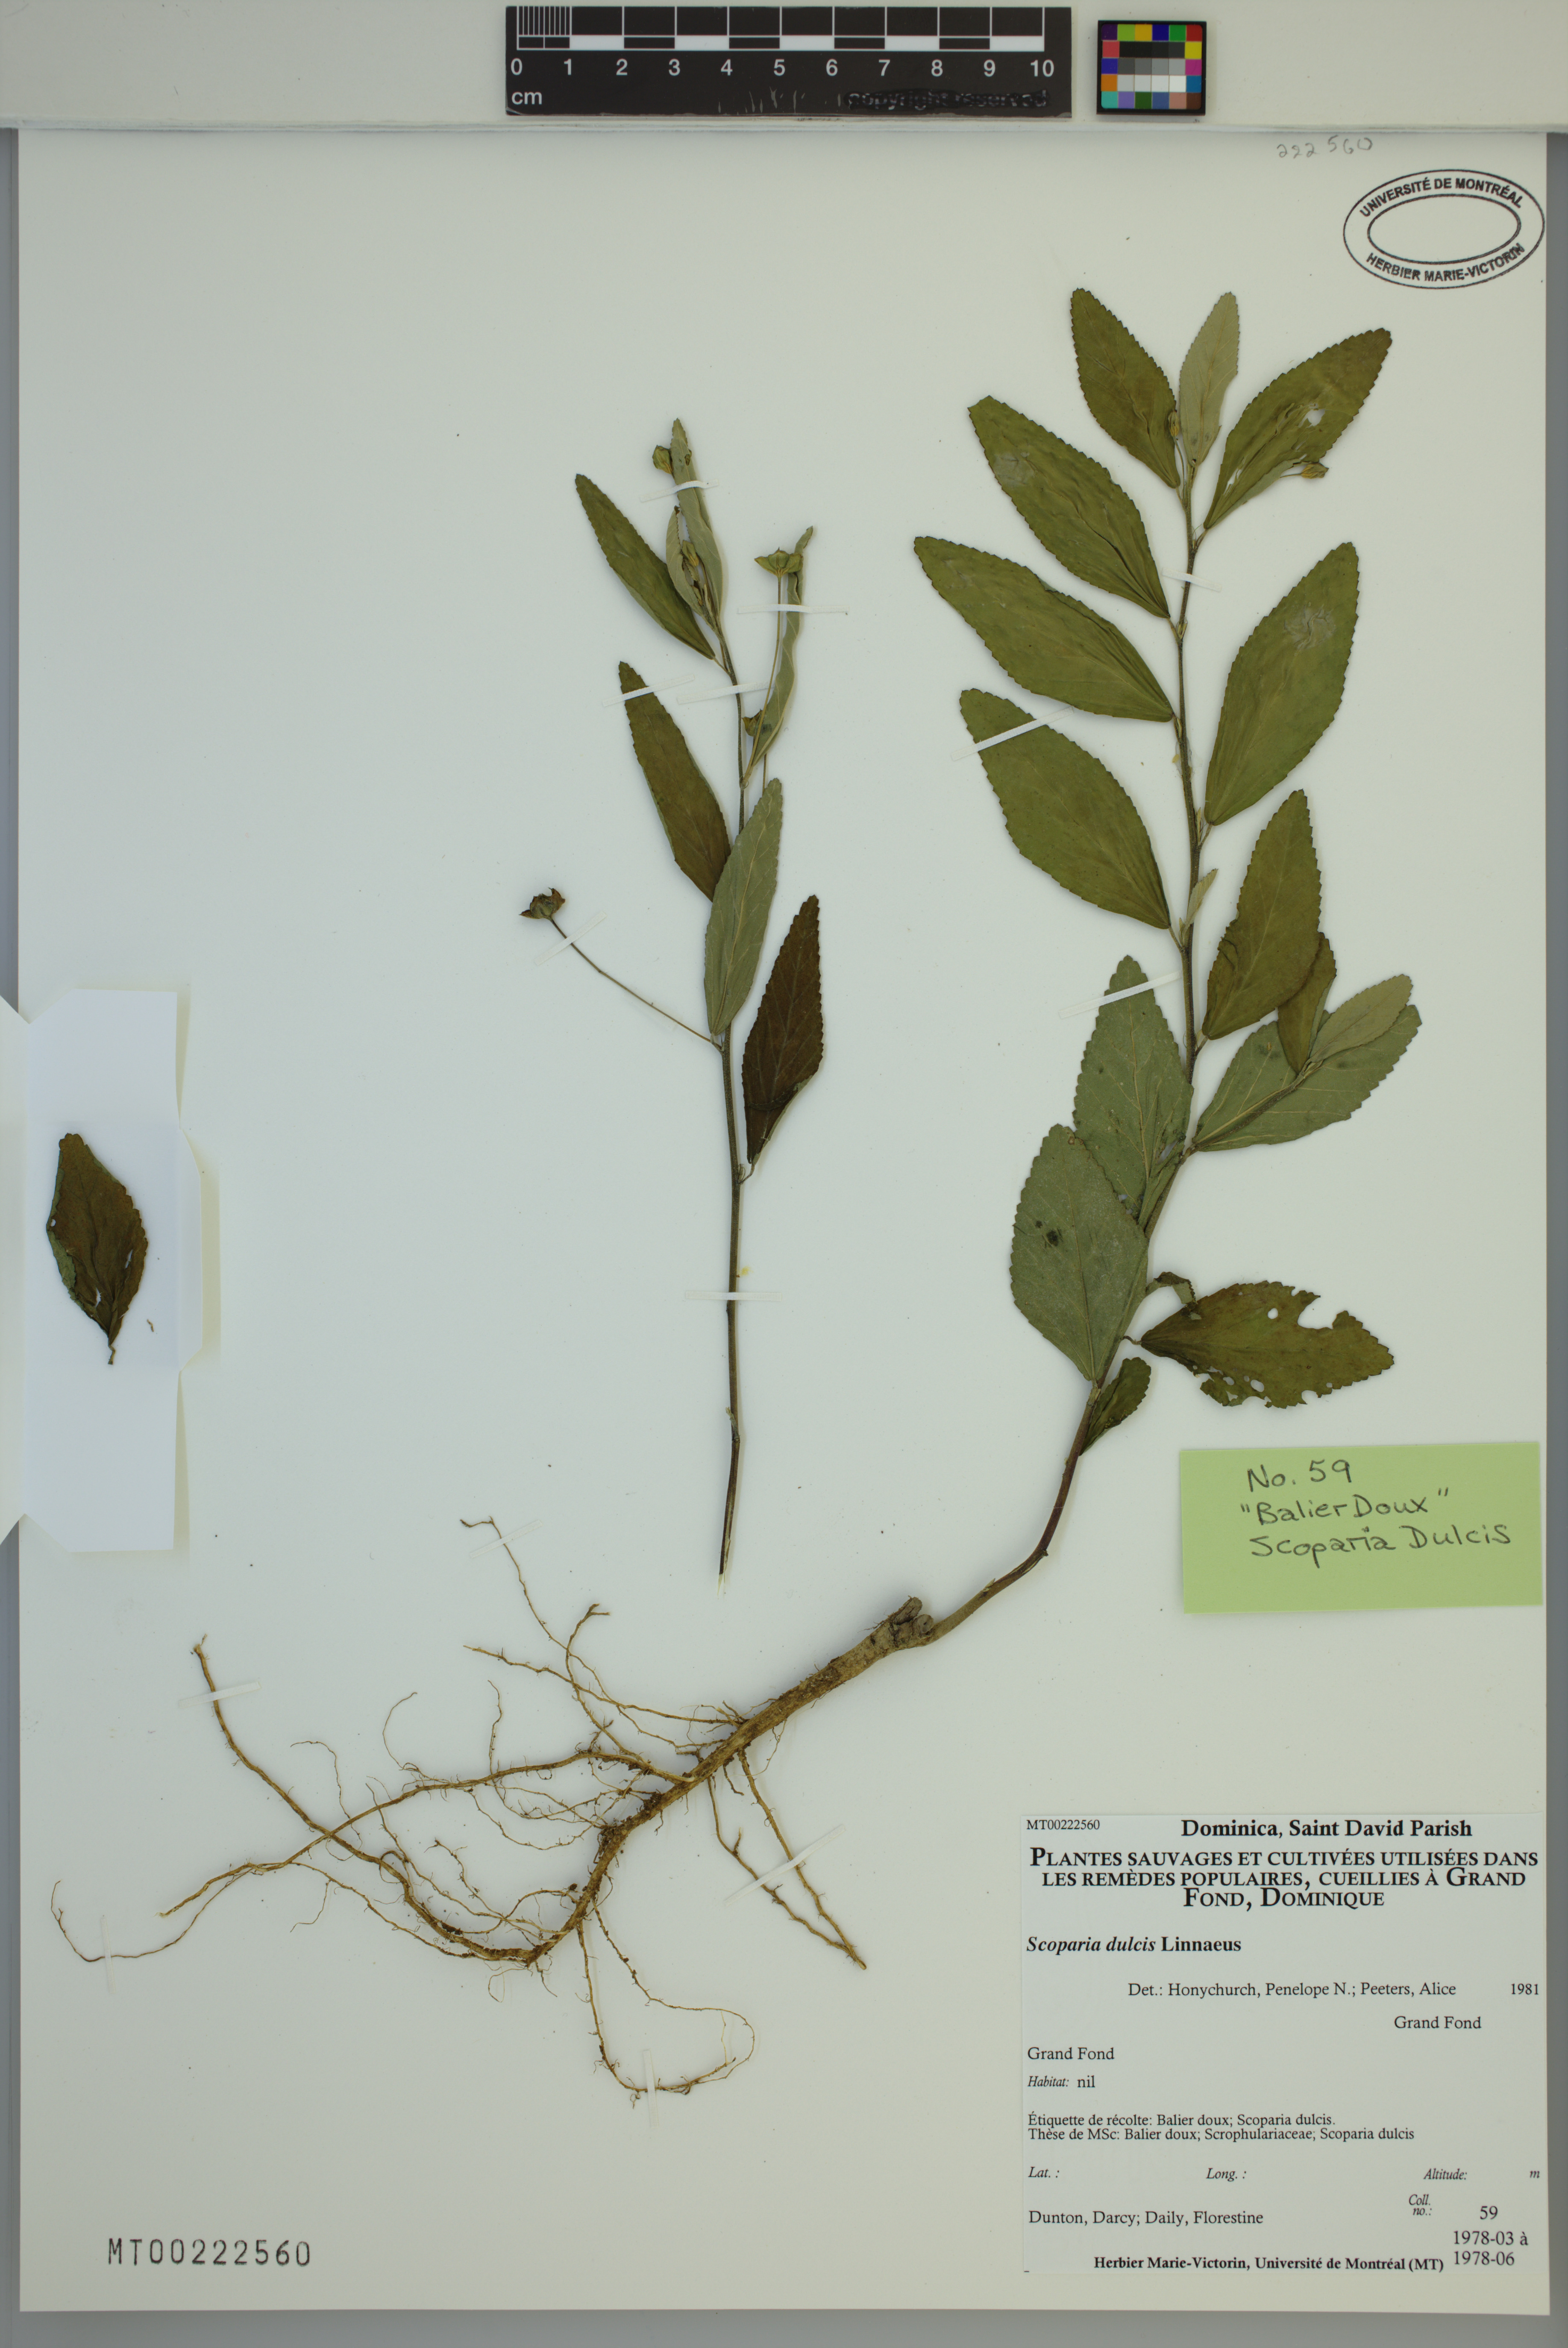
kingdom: Plantae
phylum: Tracheophyta
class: Magnoliopsida
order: Lamiales
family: Plantaginaceae
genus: Scoparia
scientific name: Scoparia dulcis
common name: Scoparia-weed
